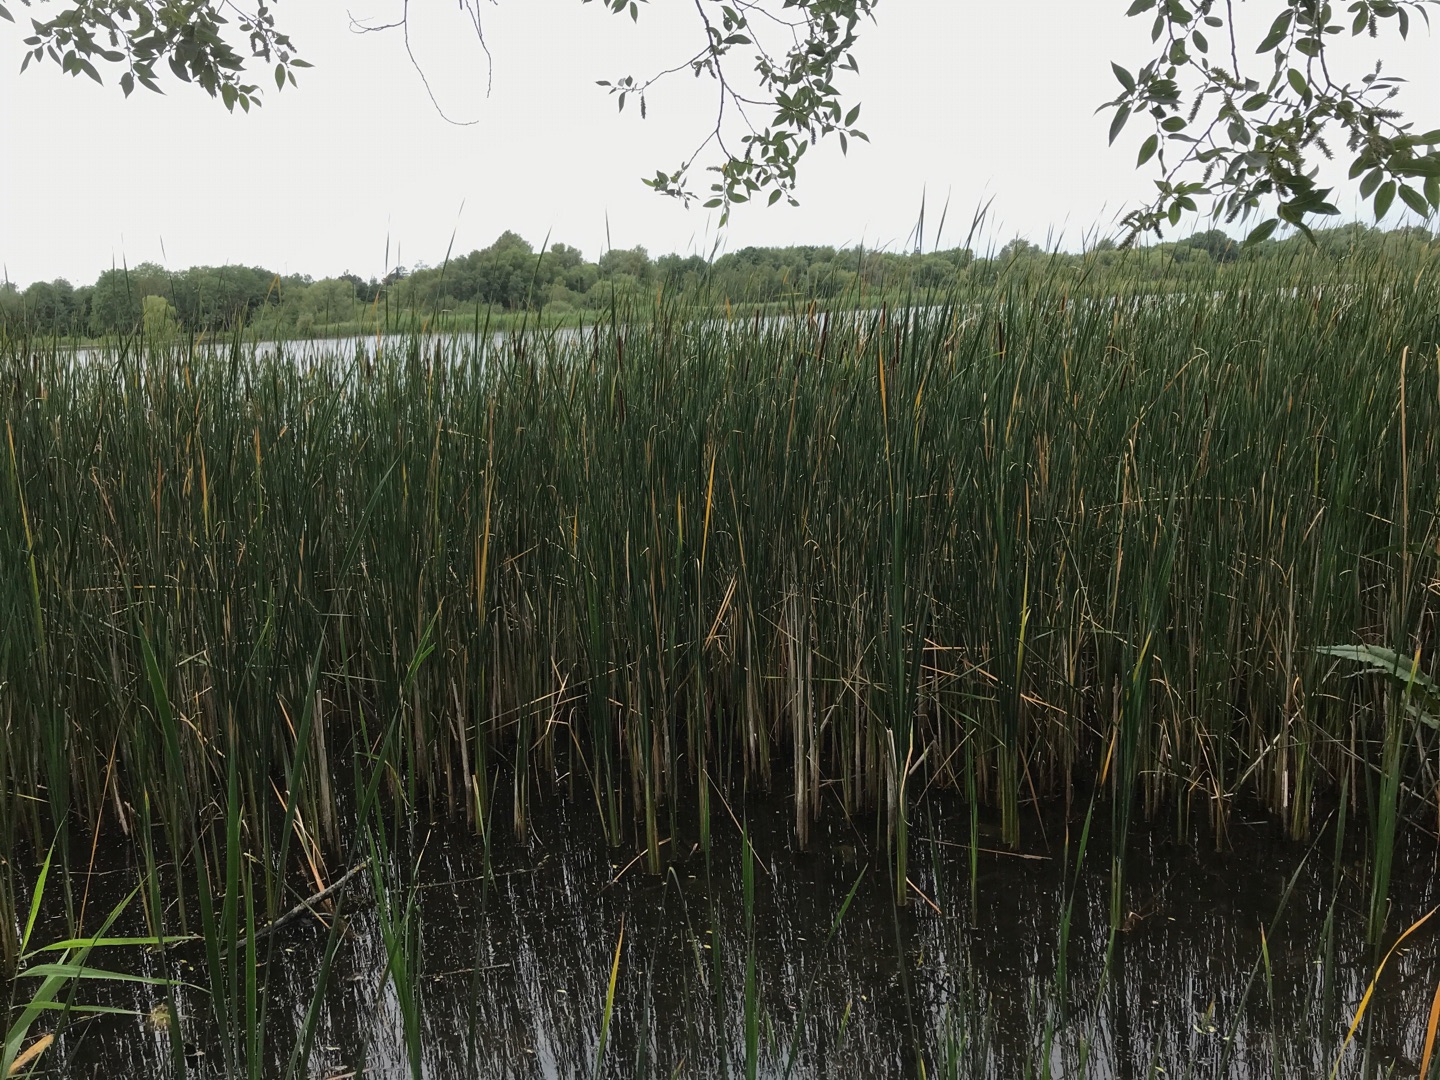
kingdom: Plantae
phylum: Tracheophyta
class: Liliopsida
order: Poales
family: Typhaceae
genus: Typha
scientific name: Typha angustifolia
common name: Smalbladet dunhammer
